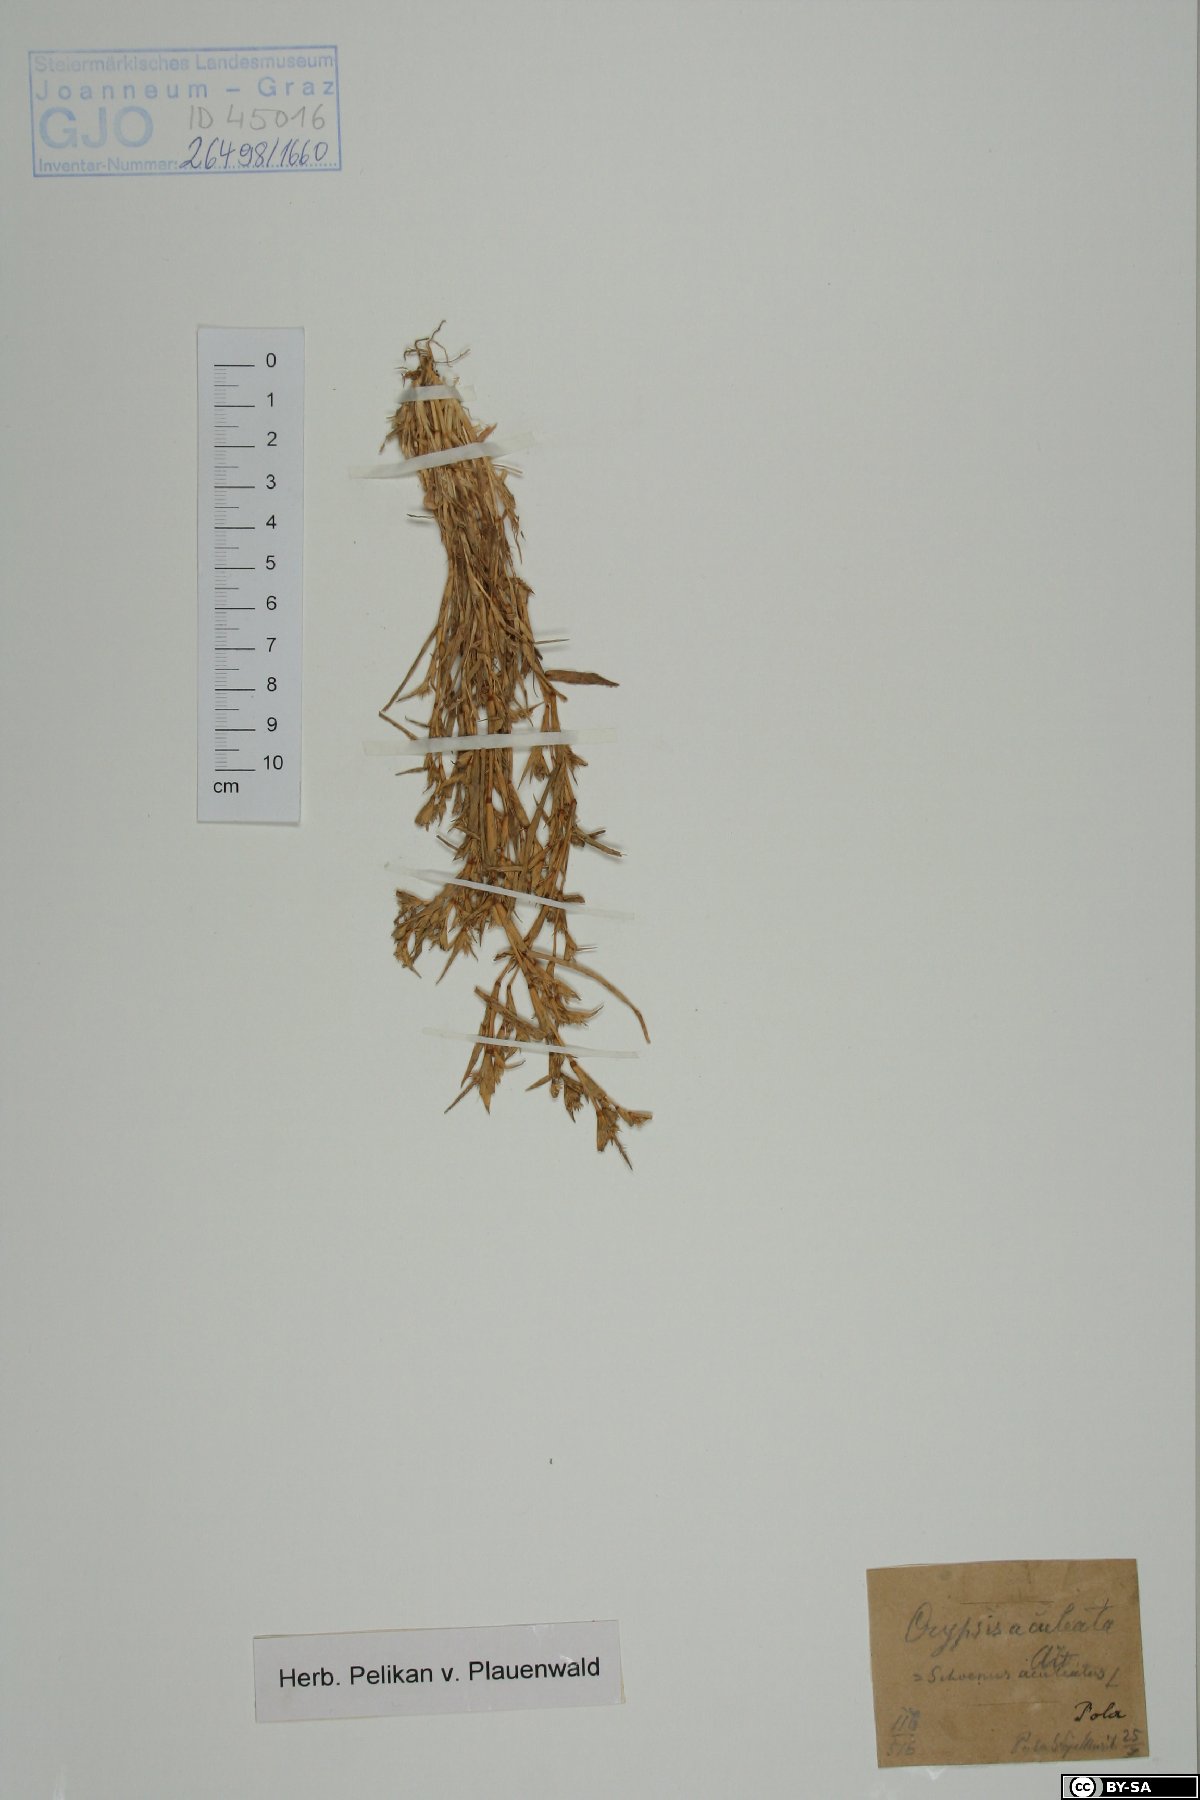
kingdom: Plantae
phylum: Tracheophyta
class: Liliopsida
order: Poales
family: Poaceae
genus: Sporobolus
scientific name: Sporobolus aculeatus
